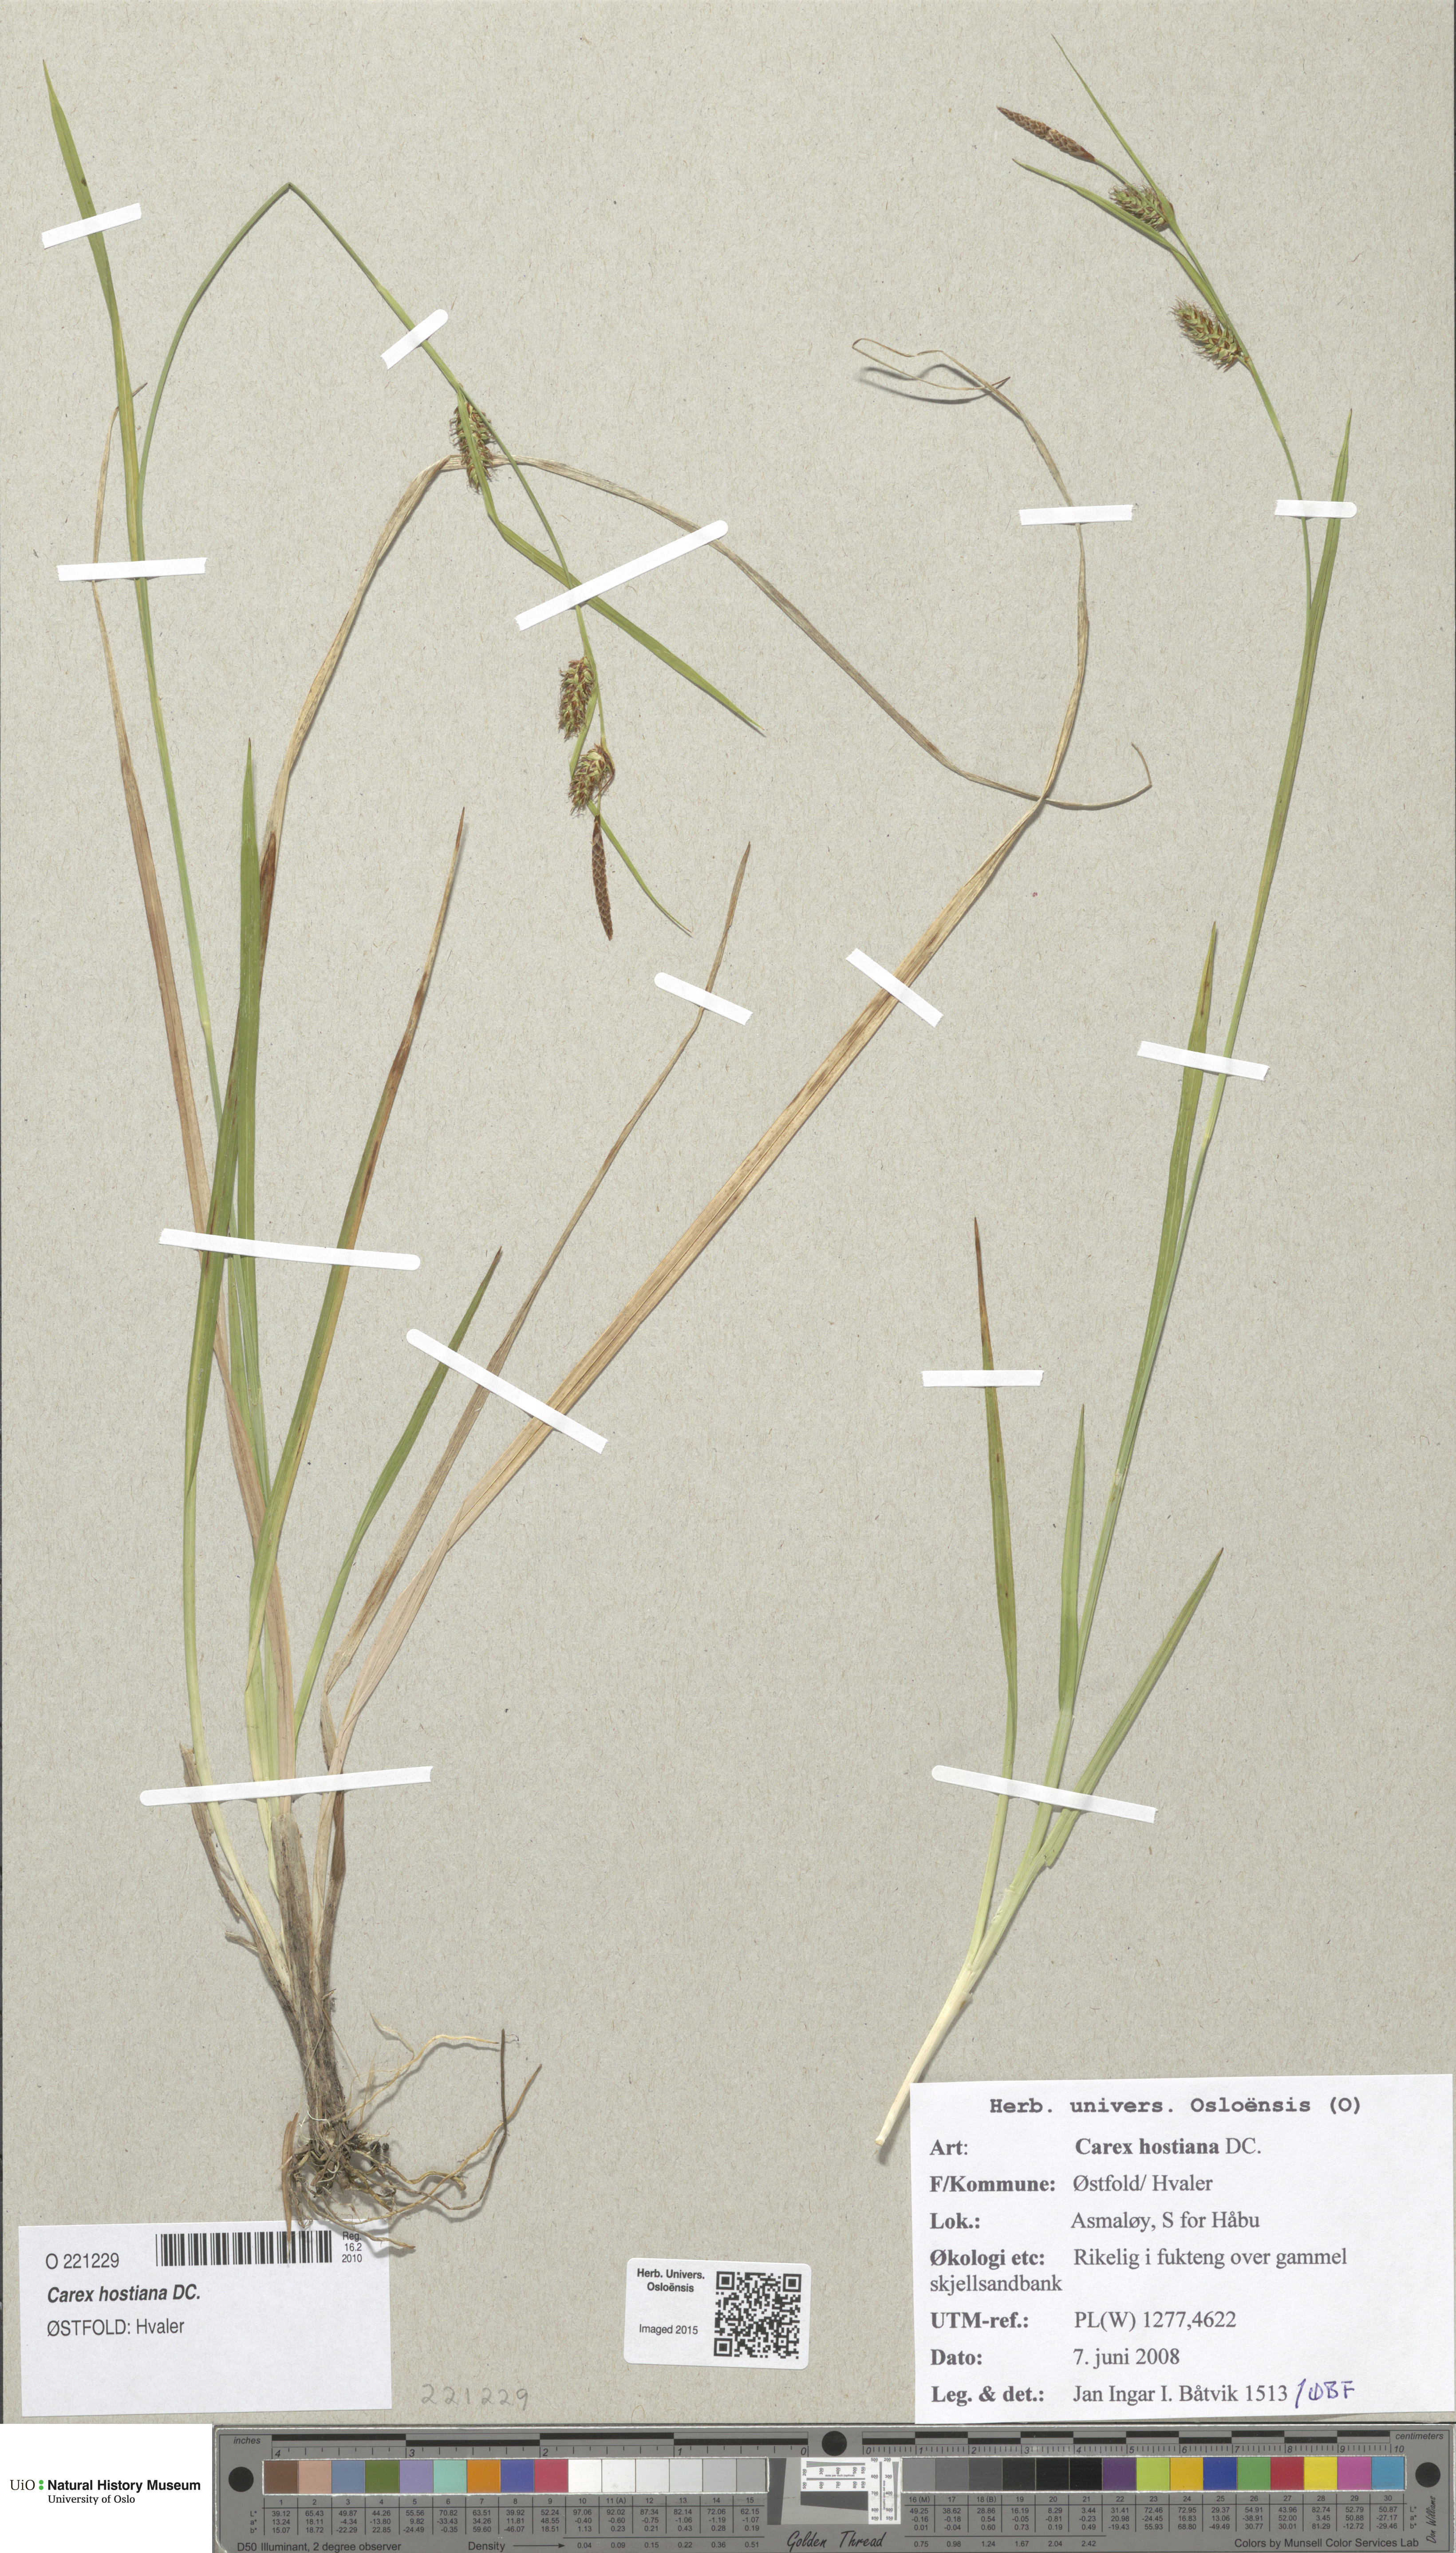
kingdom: Plantae
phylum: Tracheophyta
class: Liliopsida
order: Poales
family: Cyperaceae
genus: Carex
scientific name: Carex hostiana
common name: Tawny sedge
